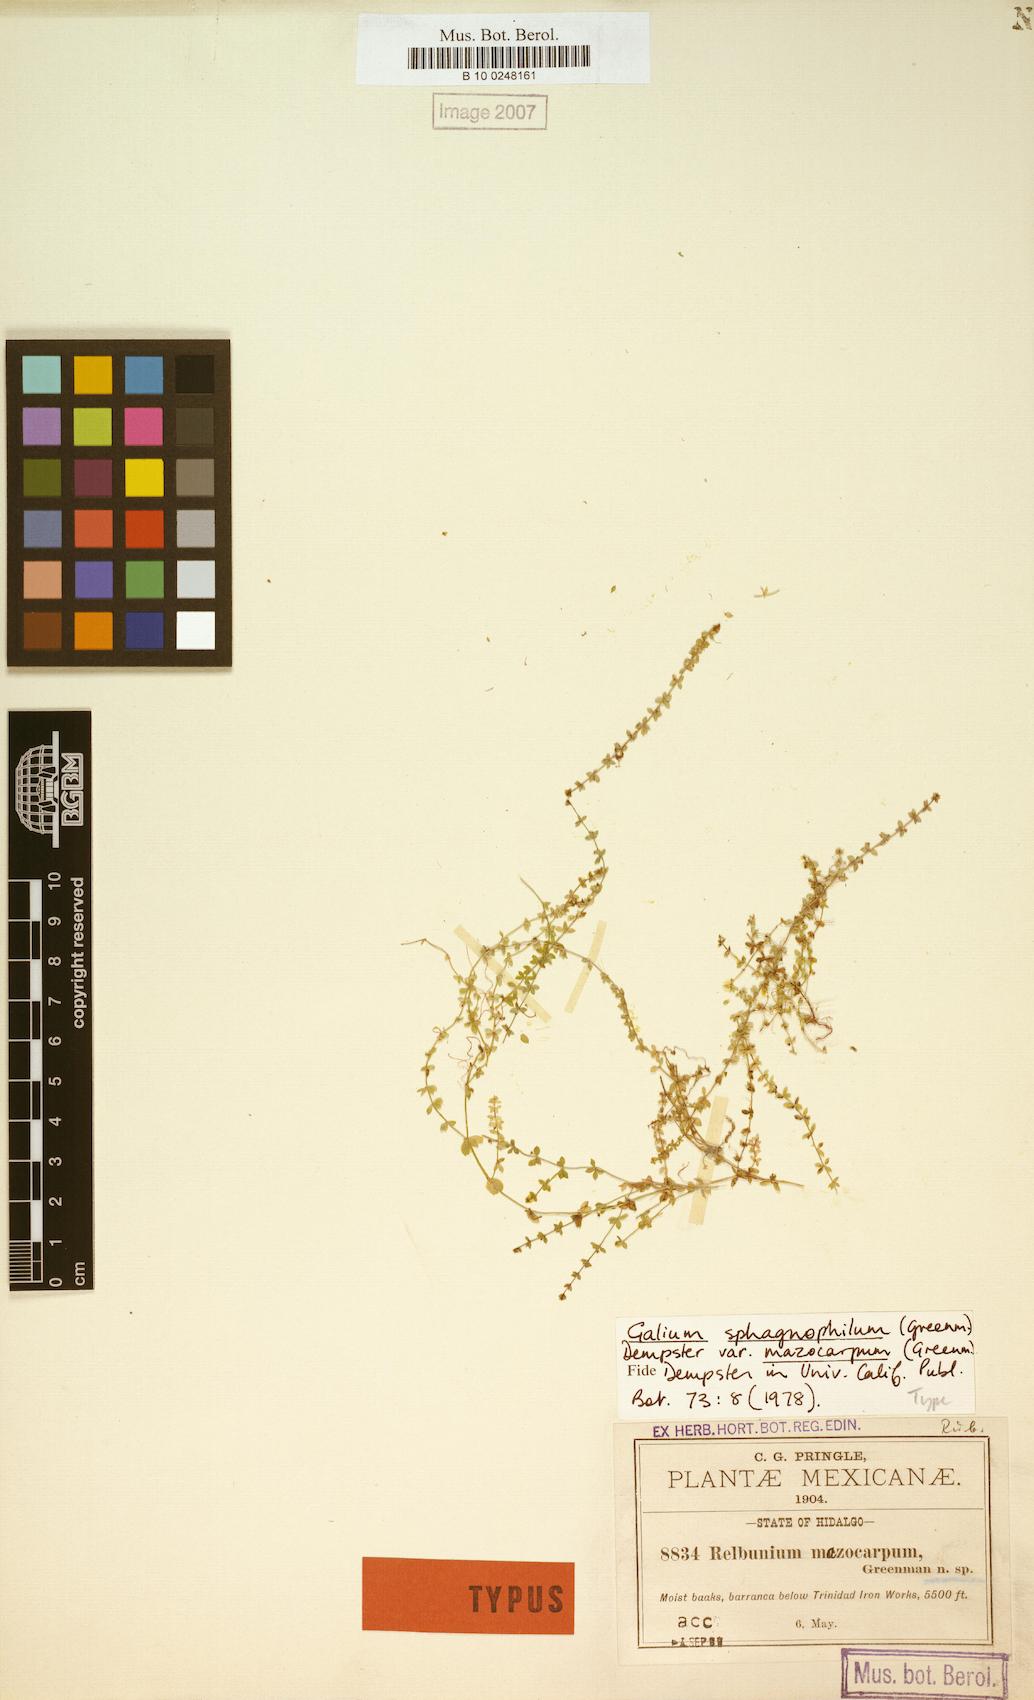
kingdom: Plantae
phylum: Tracheophyta
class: Magnoliopsida
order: Gentianales
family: Rubiaceae
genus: Galium
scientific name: Galium sphagnophilum
